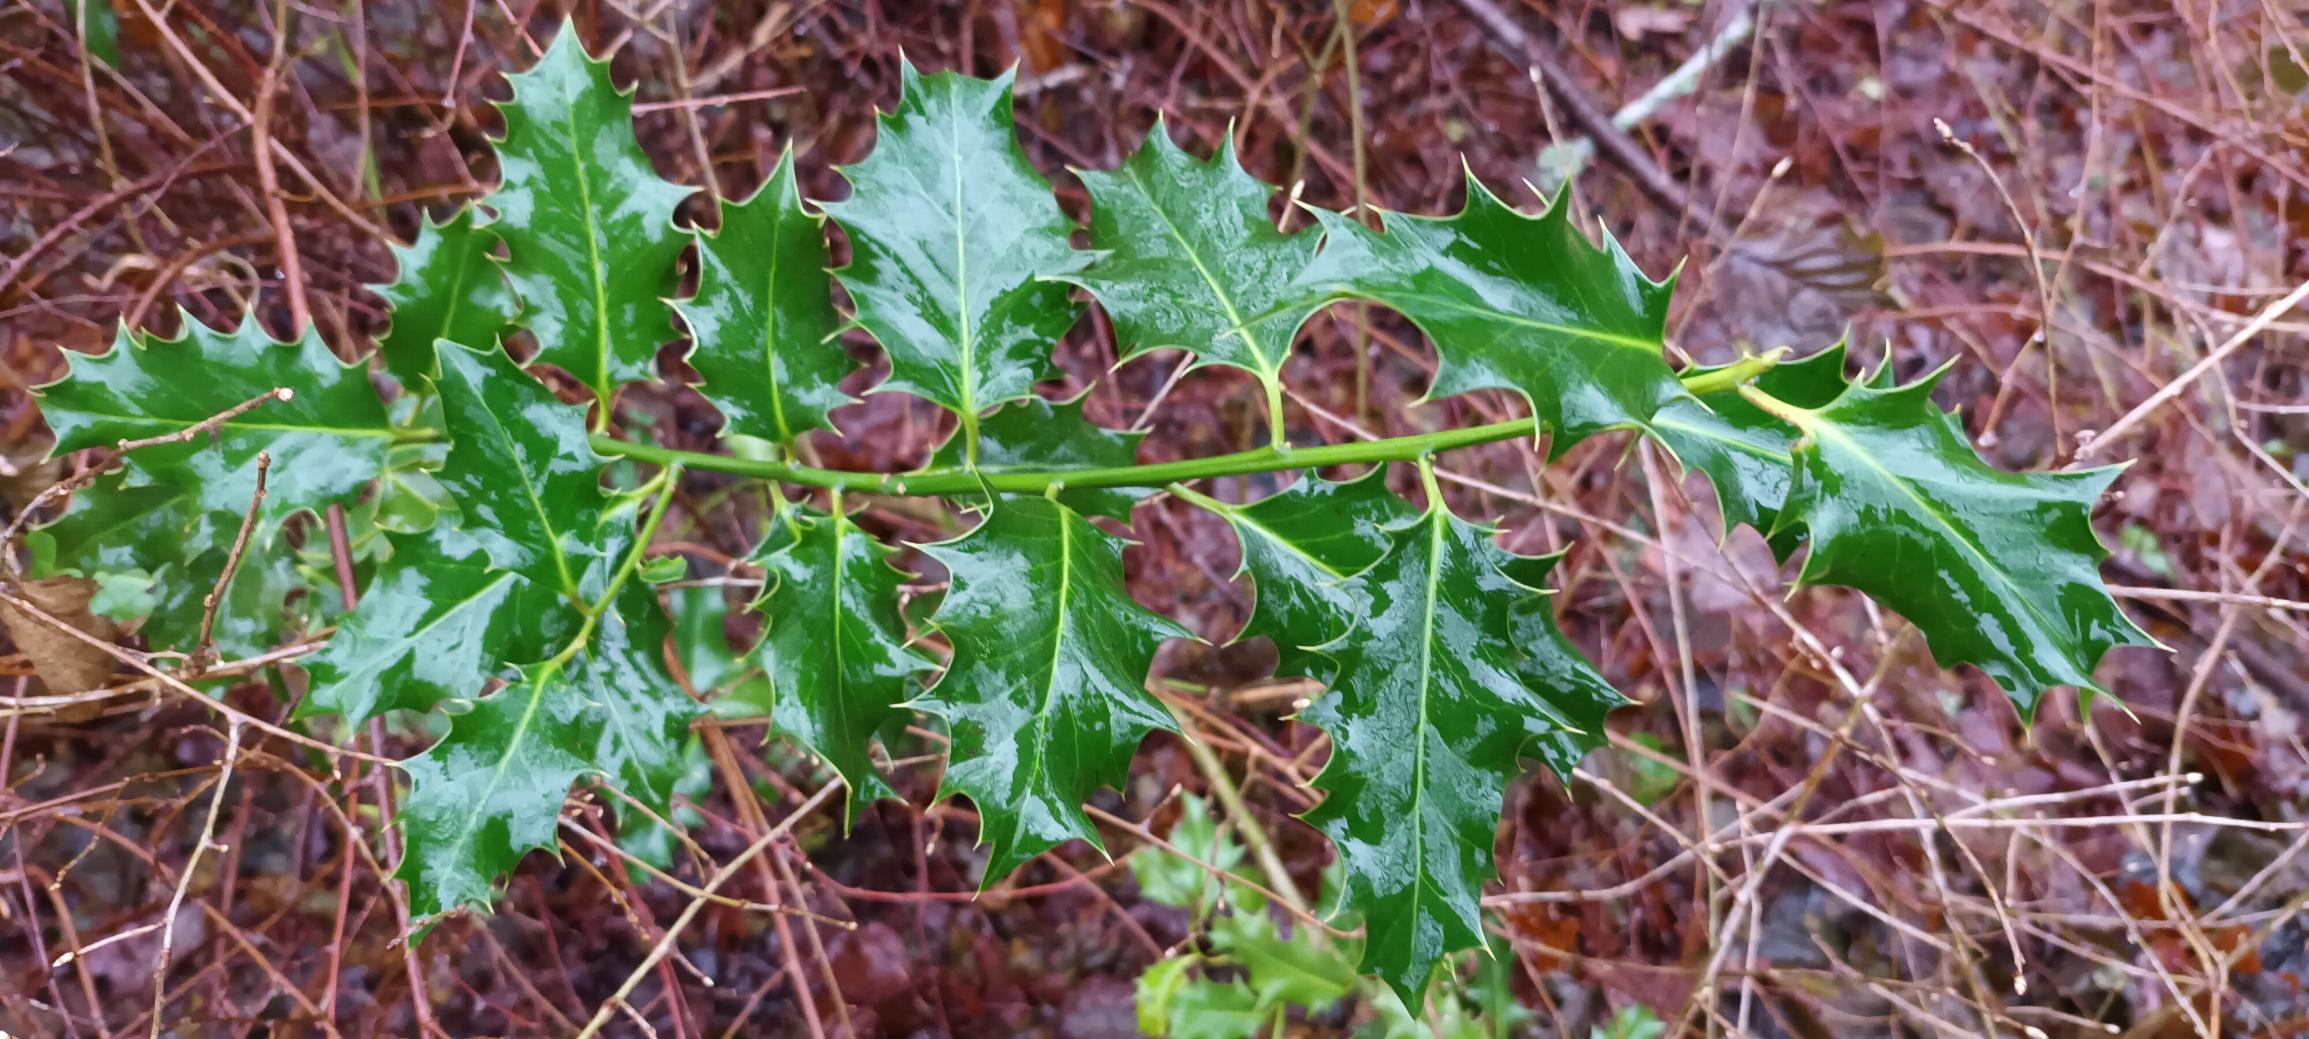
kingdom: Plantae
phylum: Tracheophyta
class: Magnoliopsida
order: Aquifoliales
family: Aquifoliaceae
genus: Ilex
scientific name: Ilex aquifolium
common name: Kristtorn
